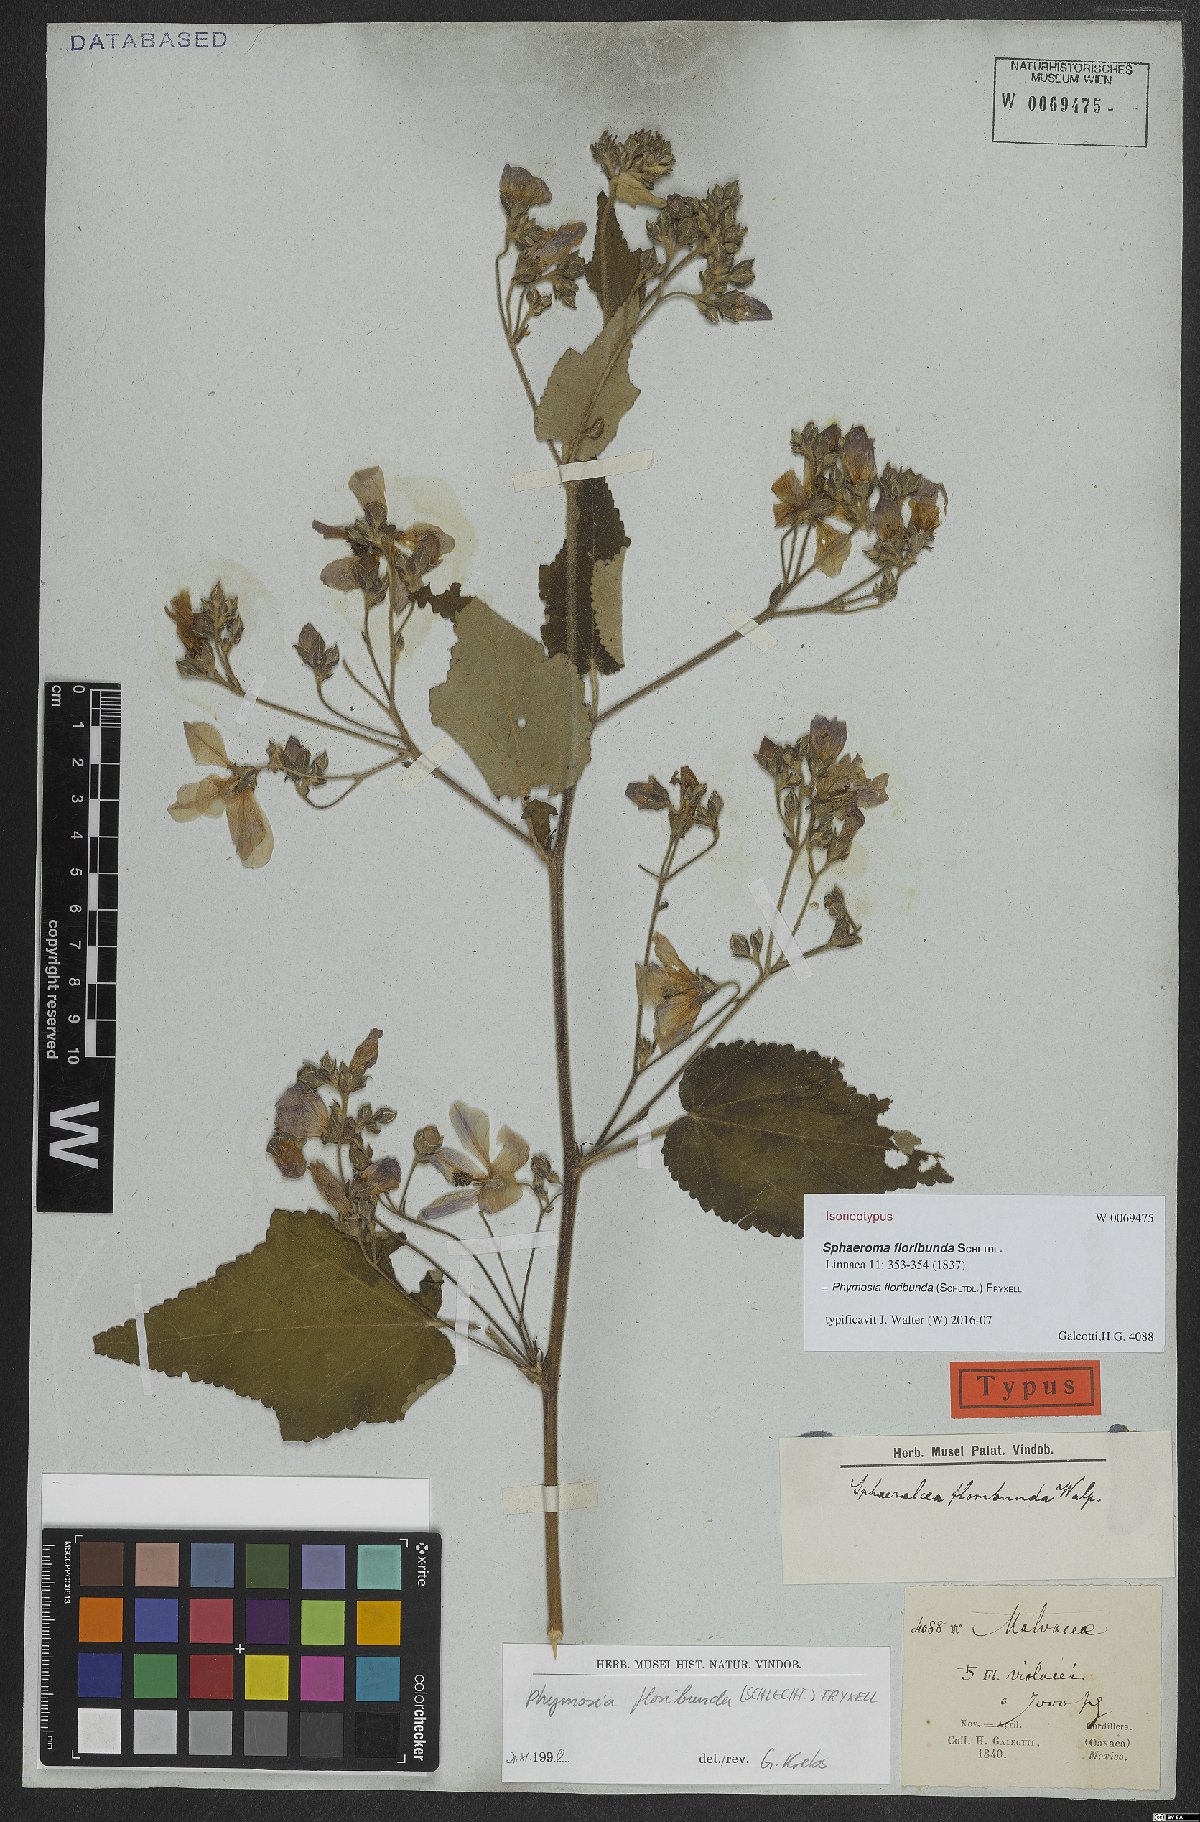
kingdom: Plantae
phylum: Tracheophyta
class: Magnoliopsida
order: Malvales
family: Malvaceae
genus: Phymosia
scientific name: Phymosia floribunda
